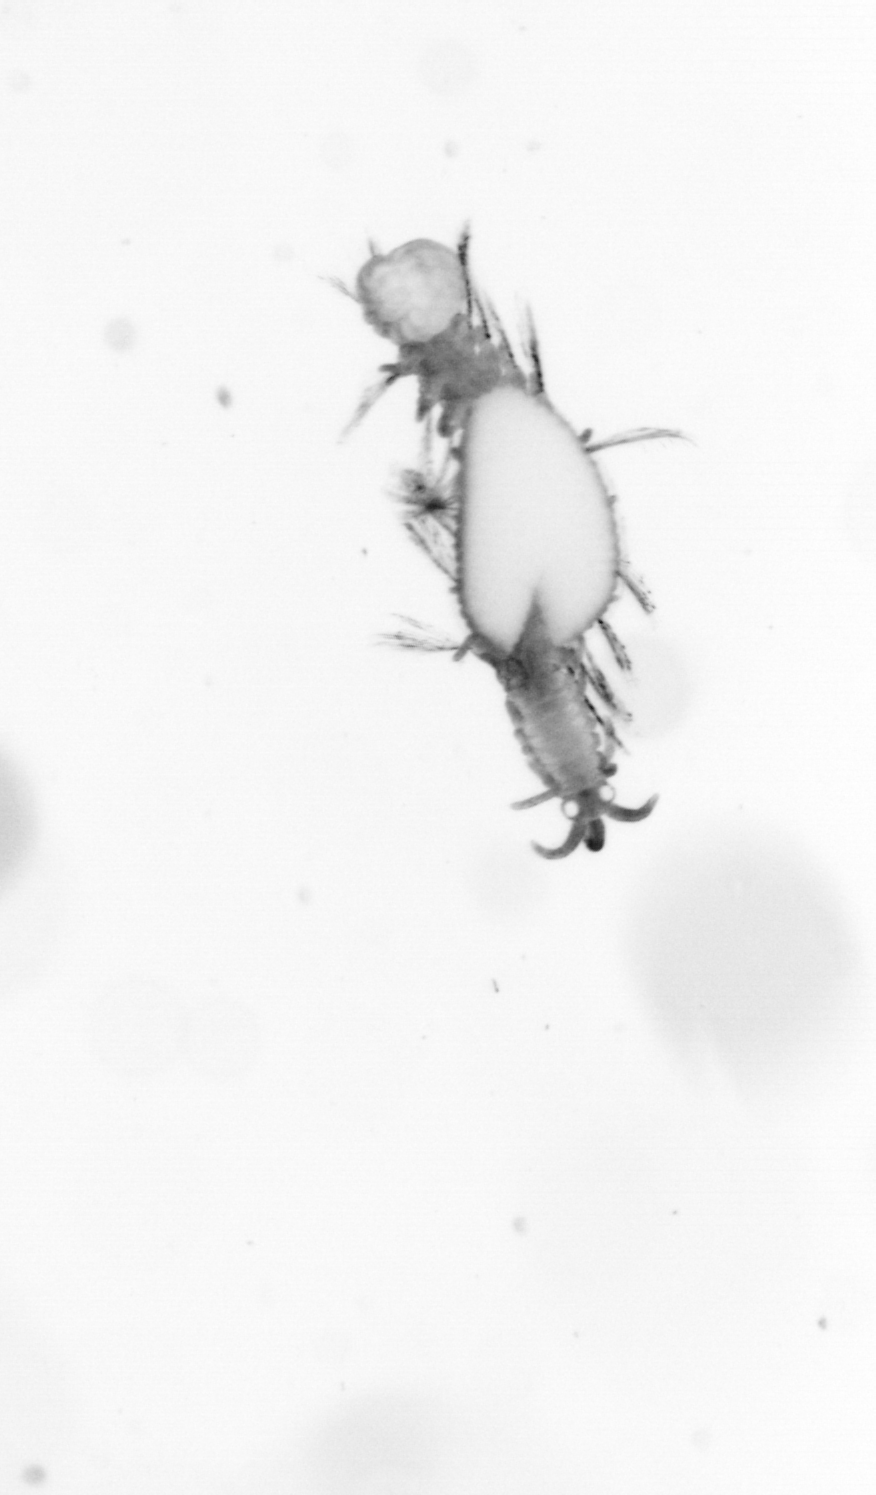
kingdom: Animalia
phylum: Annelida
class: Polychaeta
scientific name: Polychaeta
